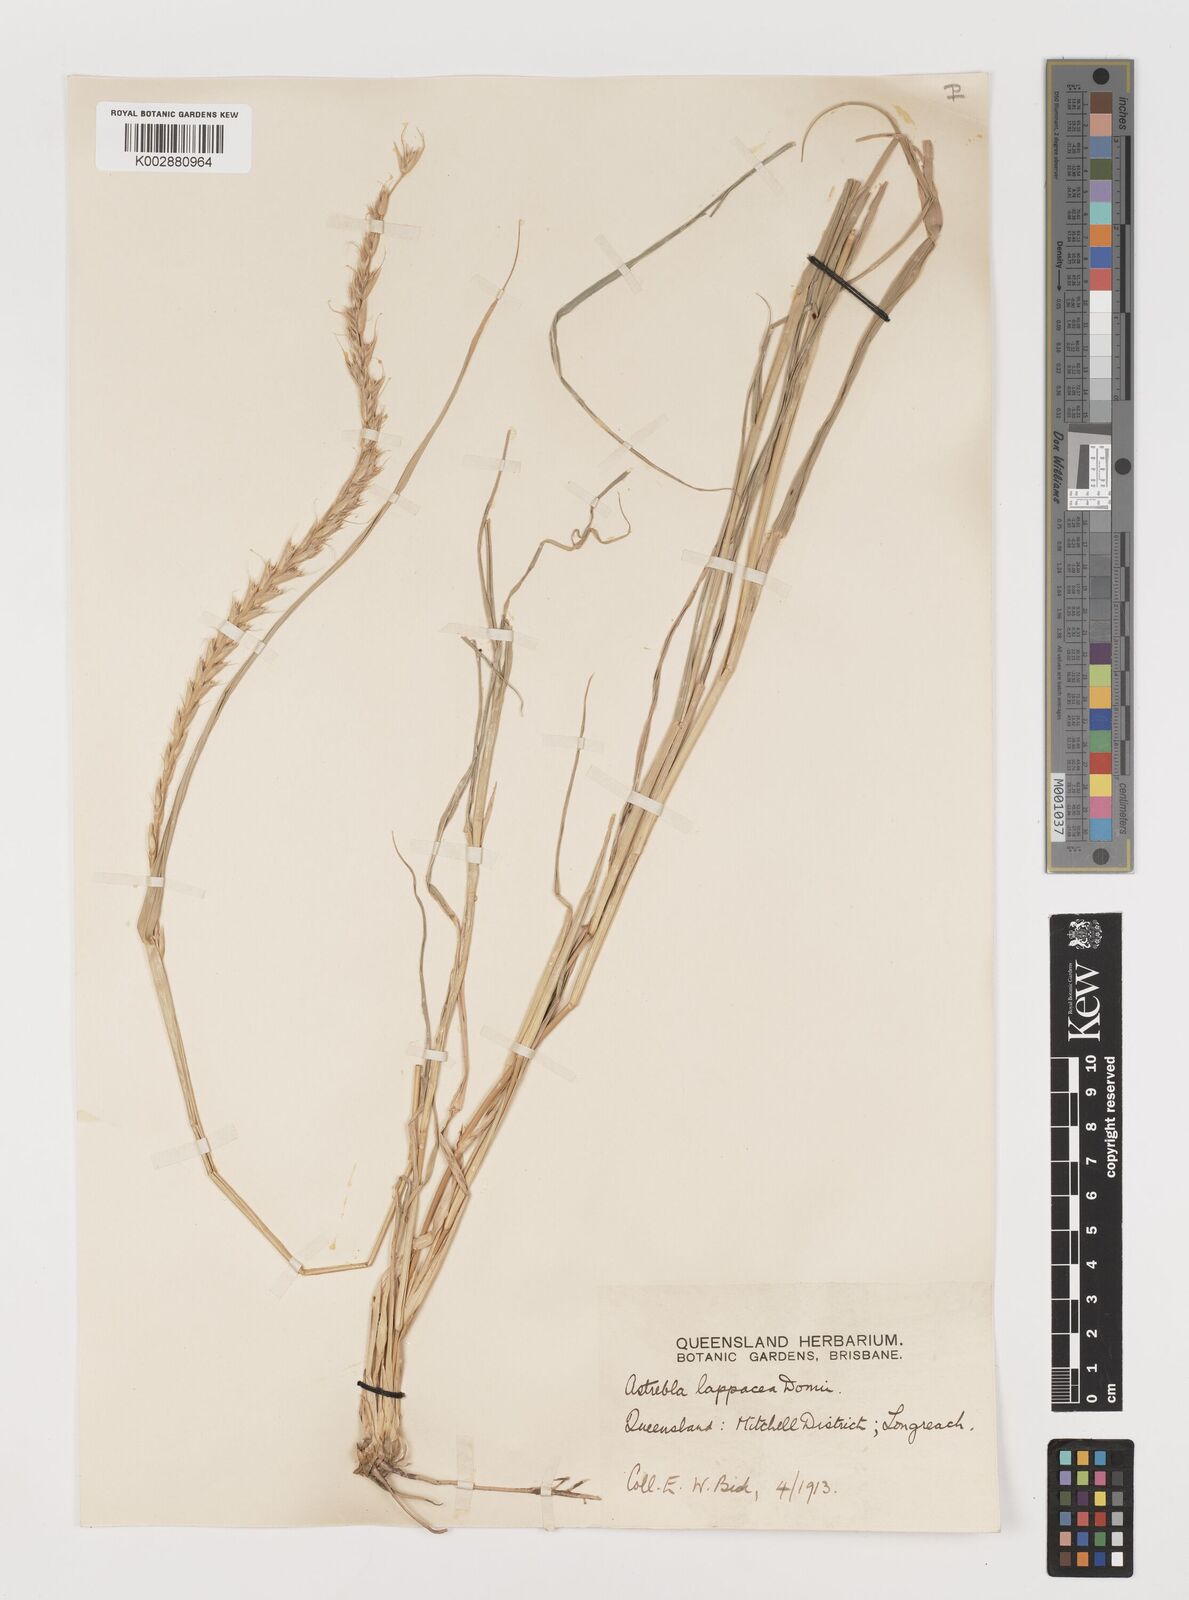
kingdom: Plantae
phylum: Tracheophyta
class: Liliopsida
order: Poales
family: Poaceae
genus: Astrebla
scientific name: Astrebla lappacea
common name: Curly mitchell grass
